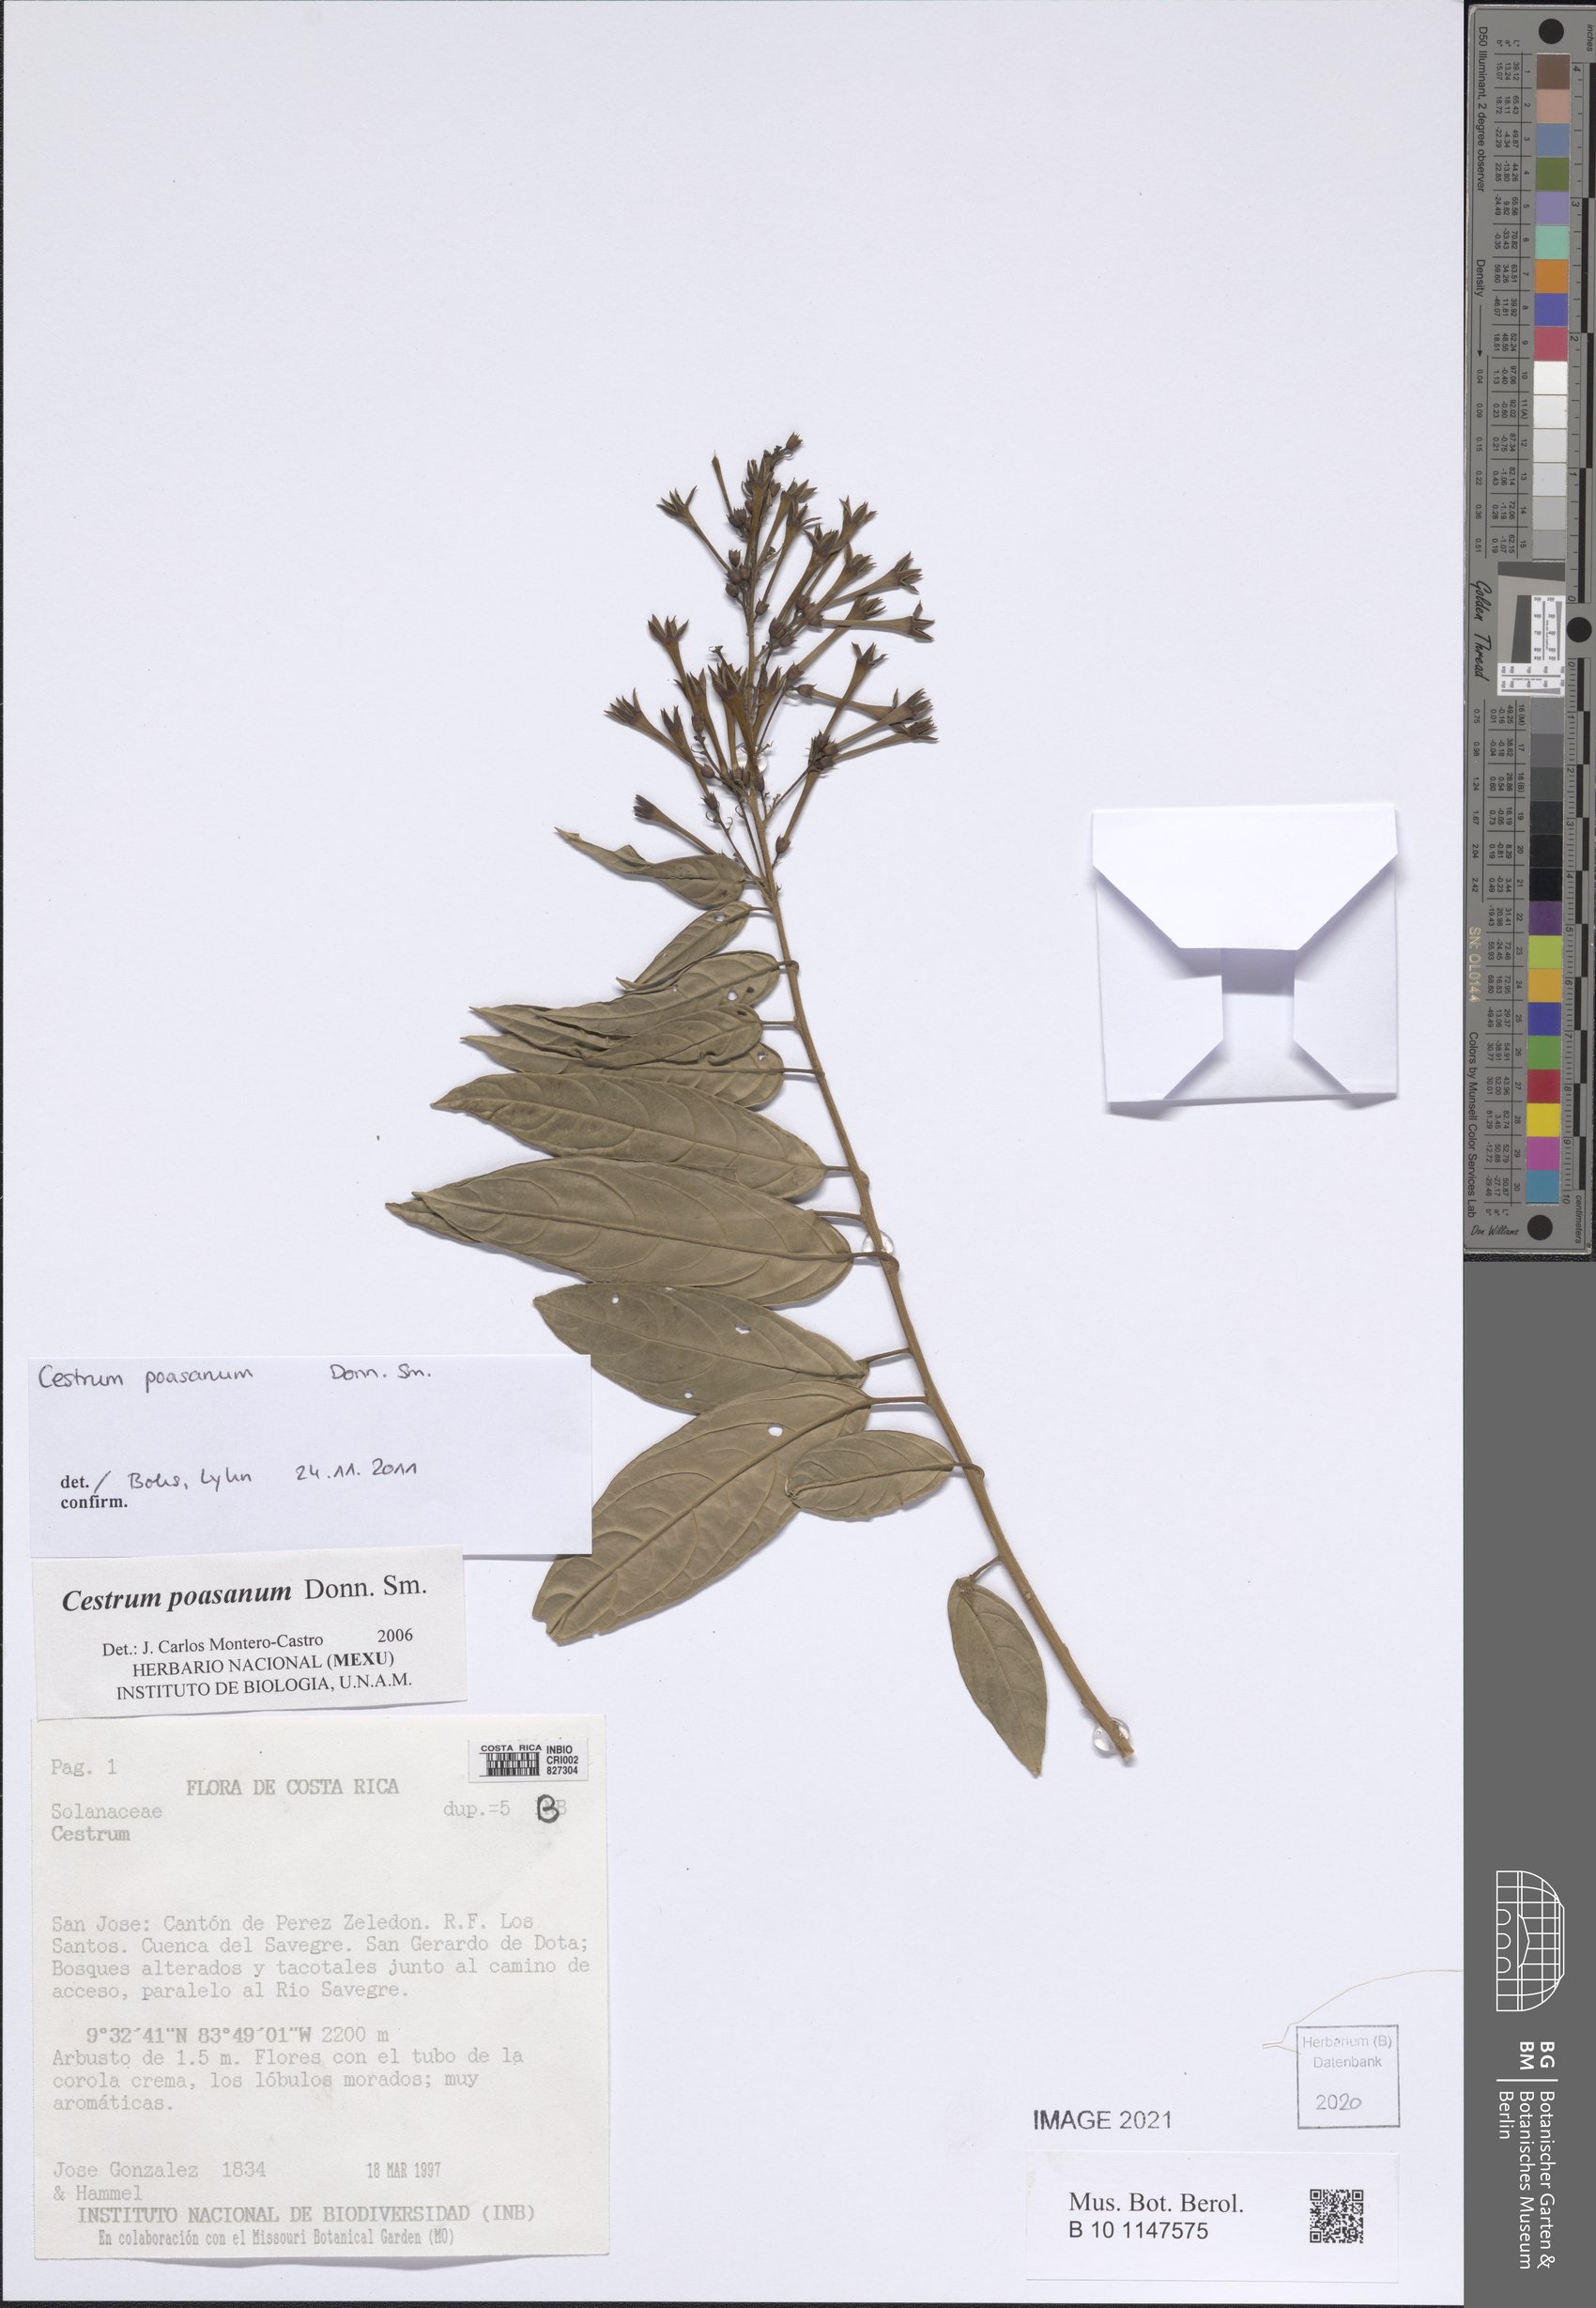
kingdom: Plantae
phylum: Tracheophyta
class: Magnoliopsida
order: Solanales
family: Solanaceae
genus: Cestrum
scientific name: Cestrum poasanum
